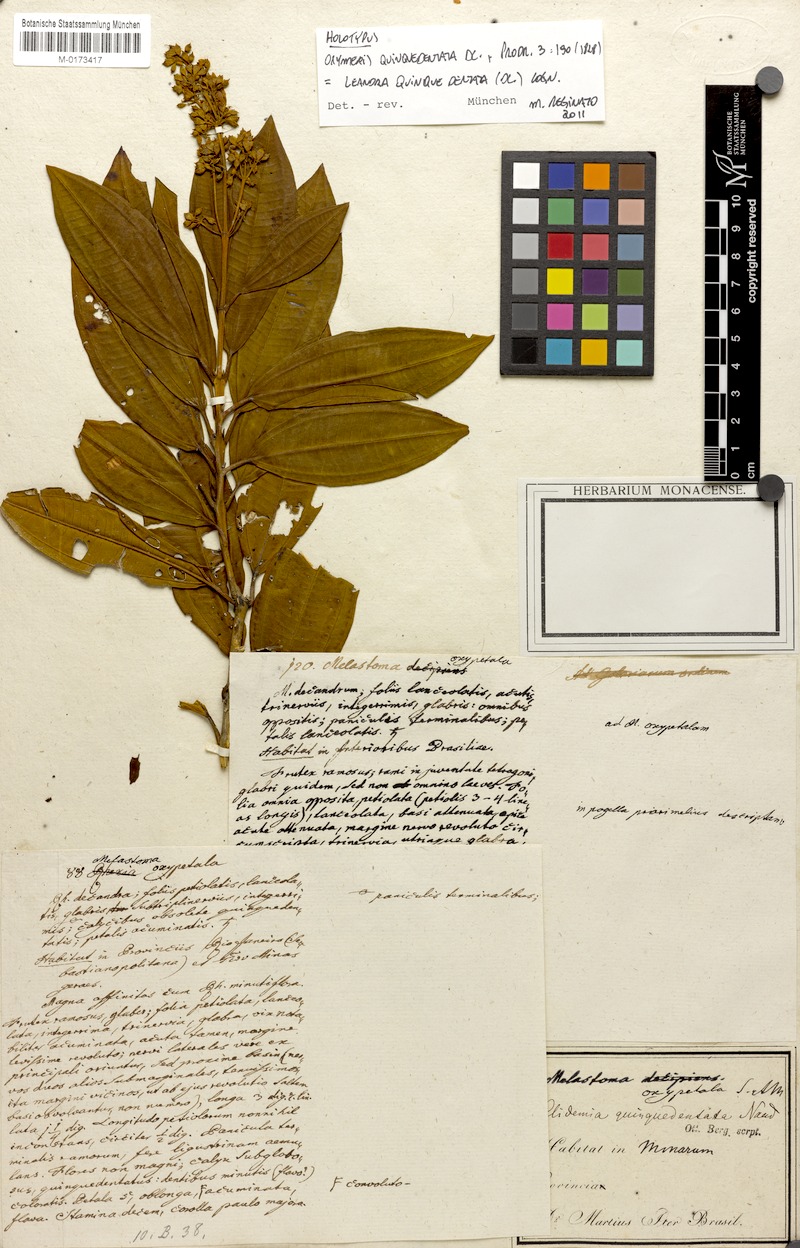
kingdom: Plantae
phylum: Tracheophyta
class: Magnoliopsida
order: Myrtales
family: Melastomataceae
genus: Miconia
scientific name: Miconia quinquedentata
